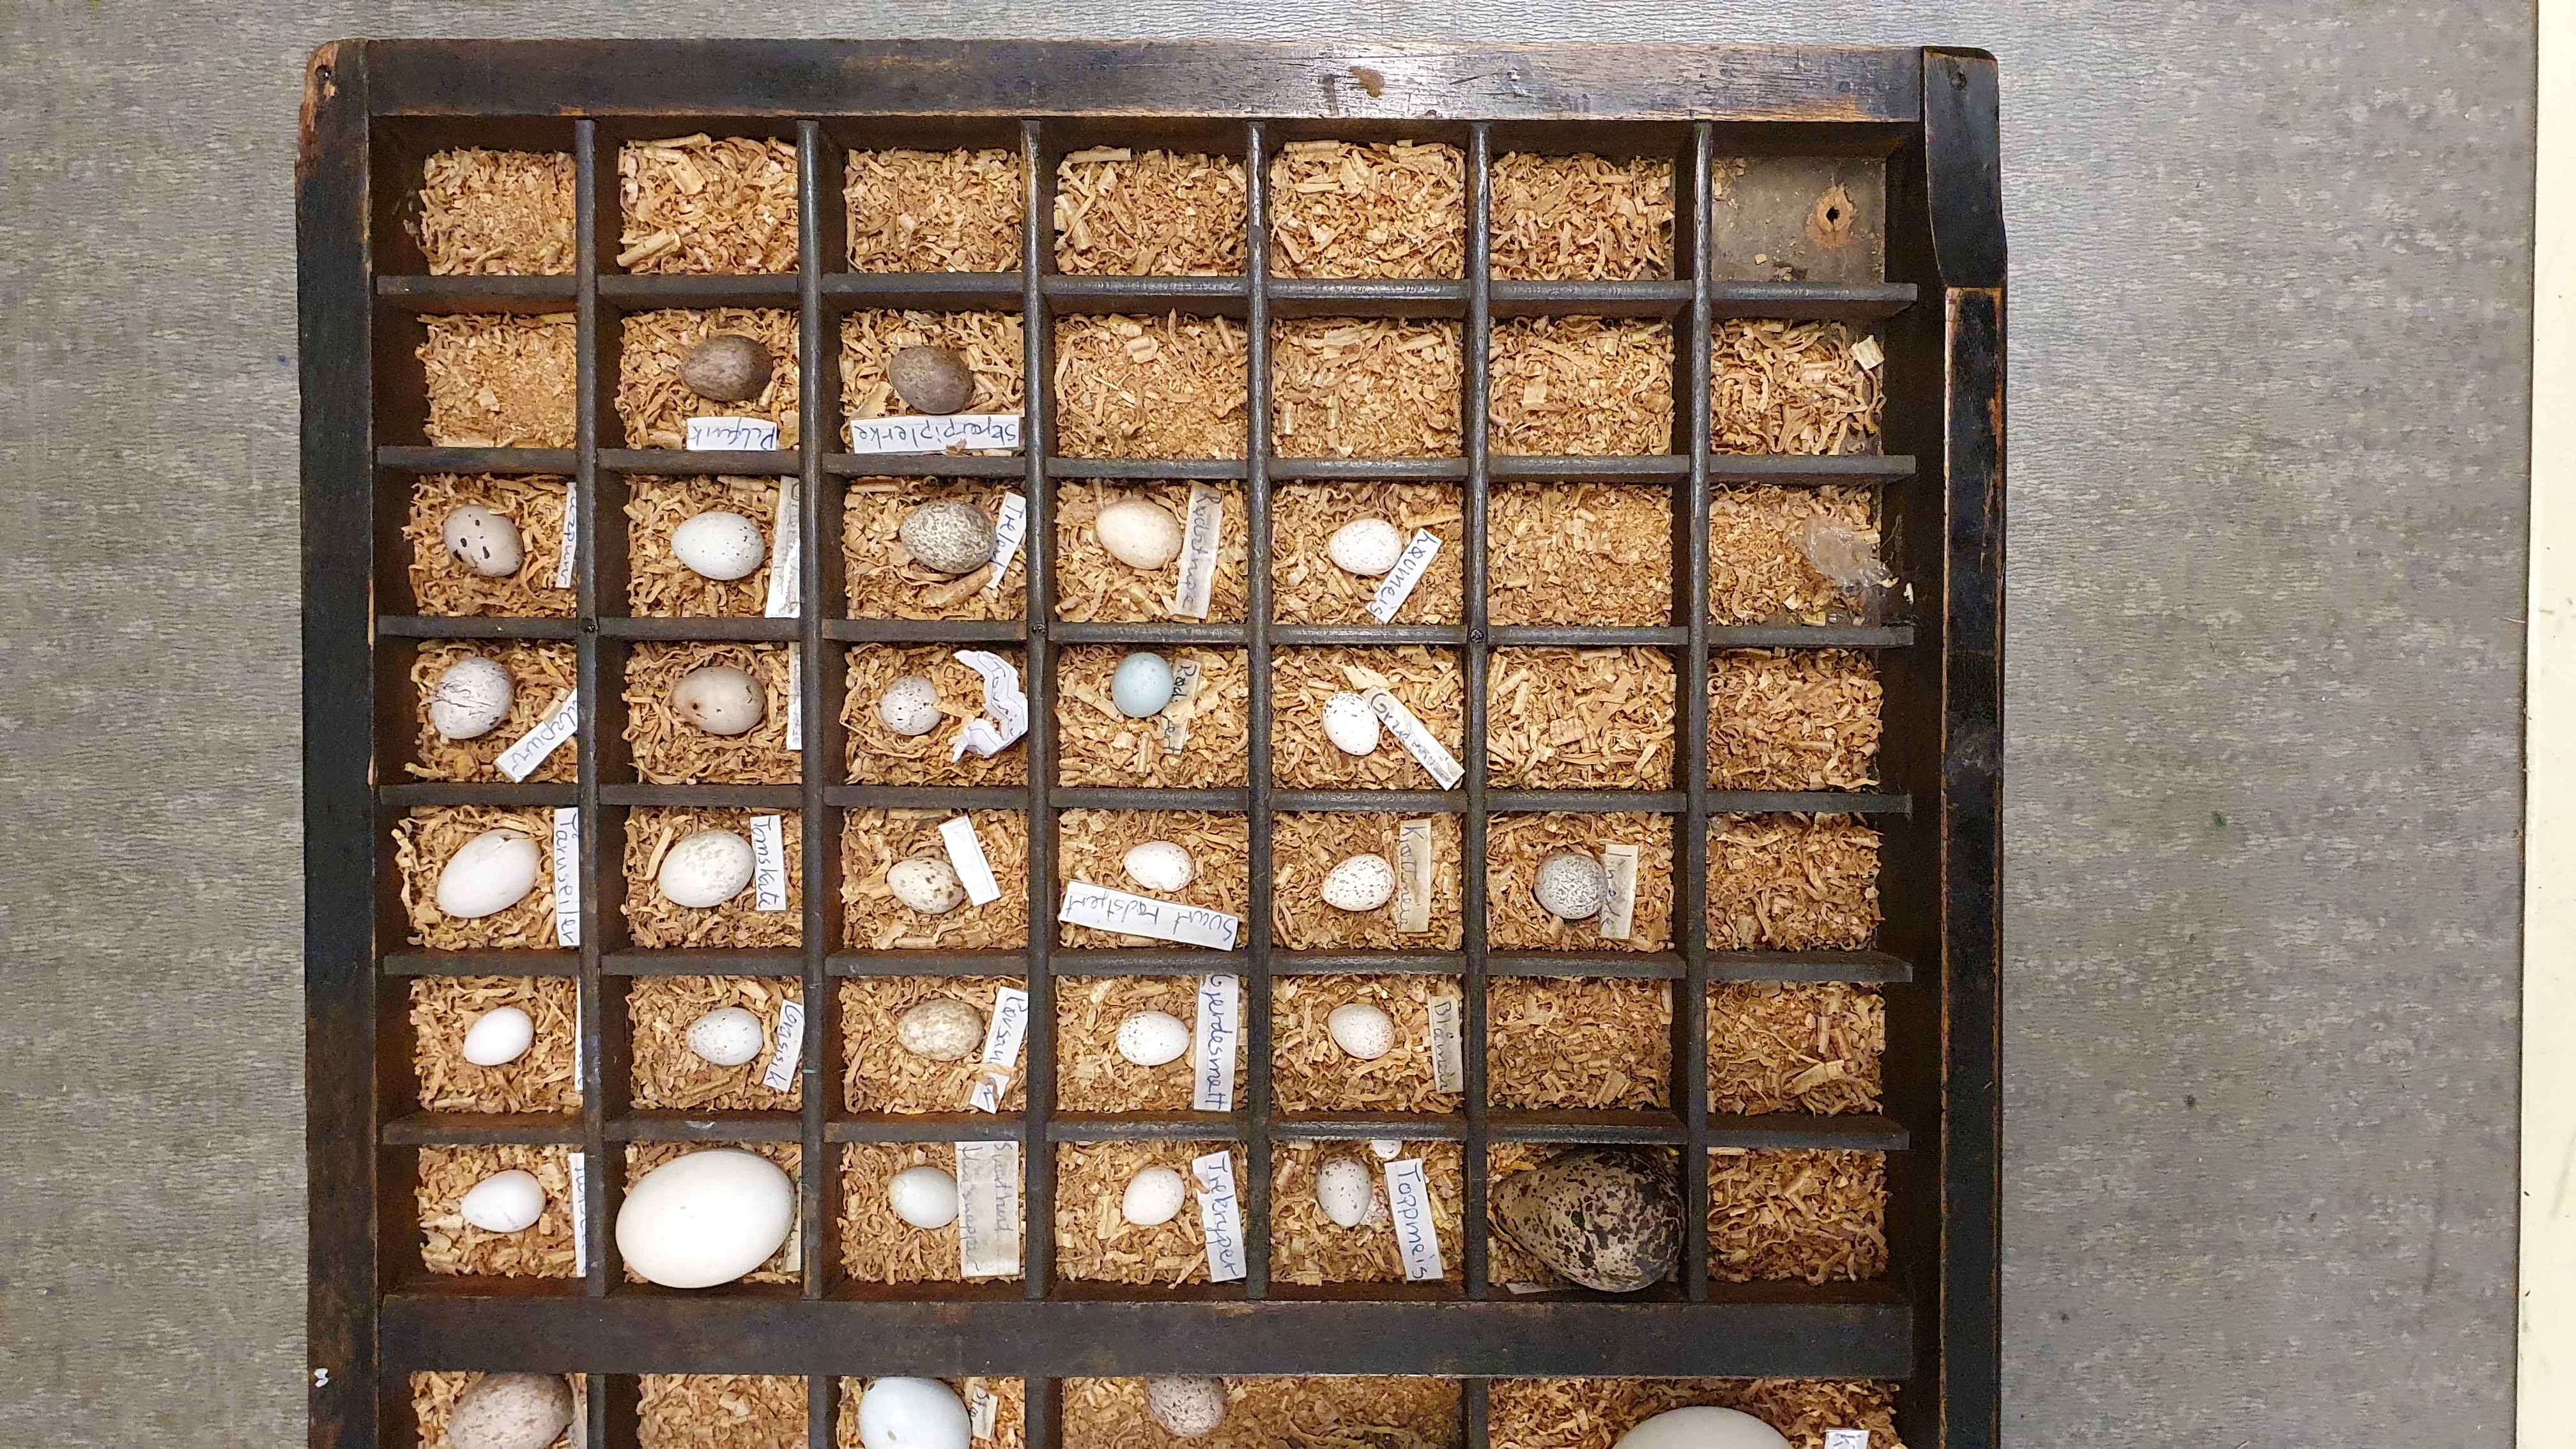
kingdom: Animalia
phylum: Chordata
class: Aves
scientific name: Aves
